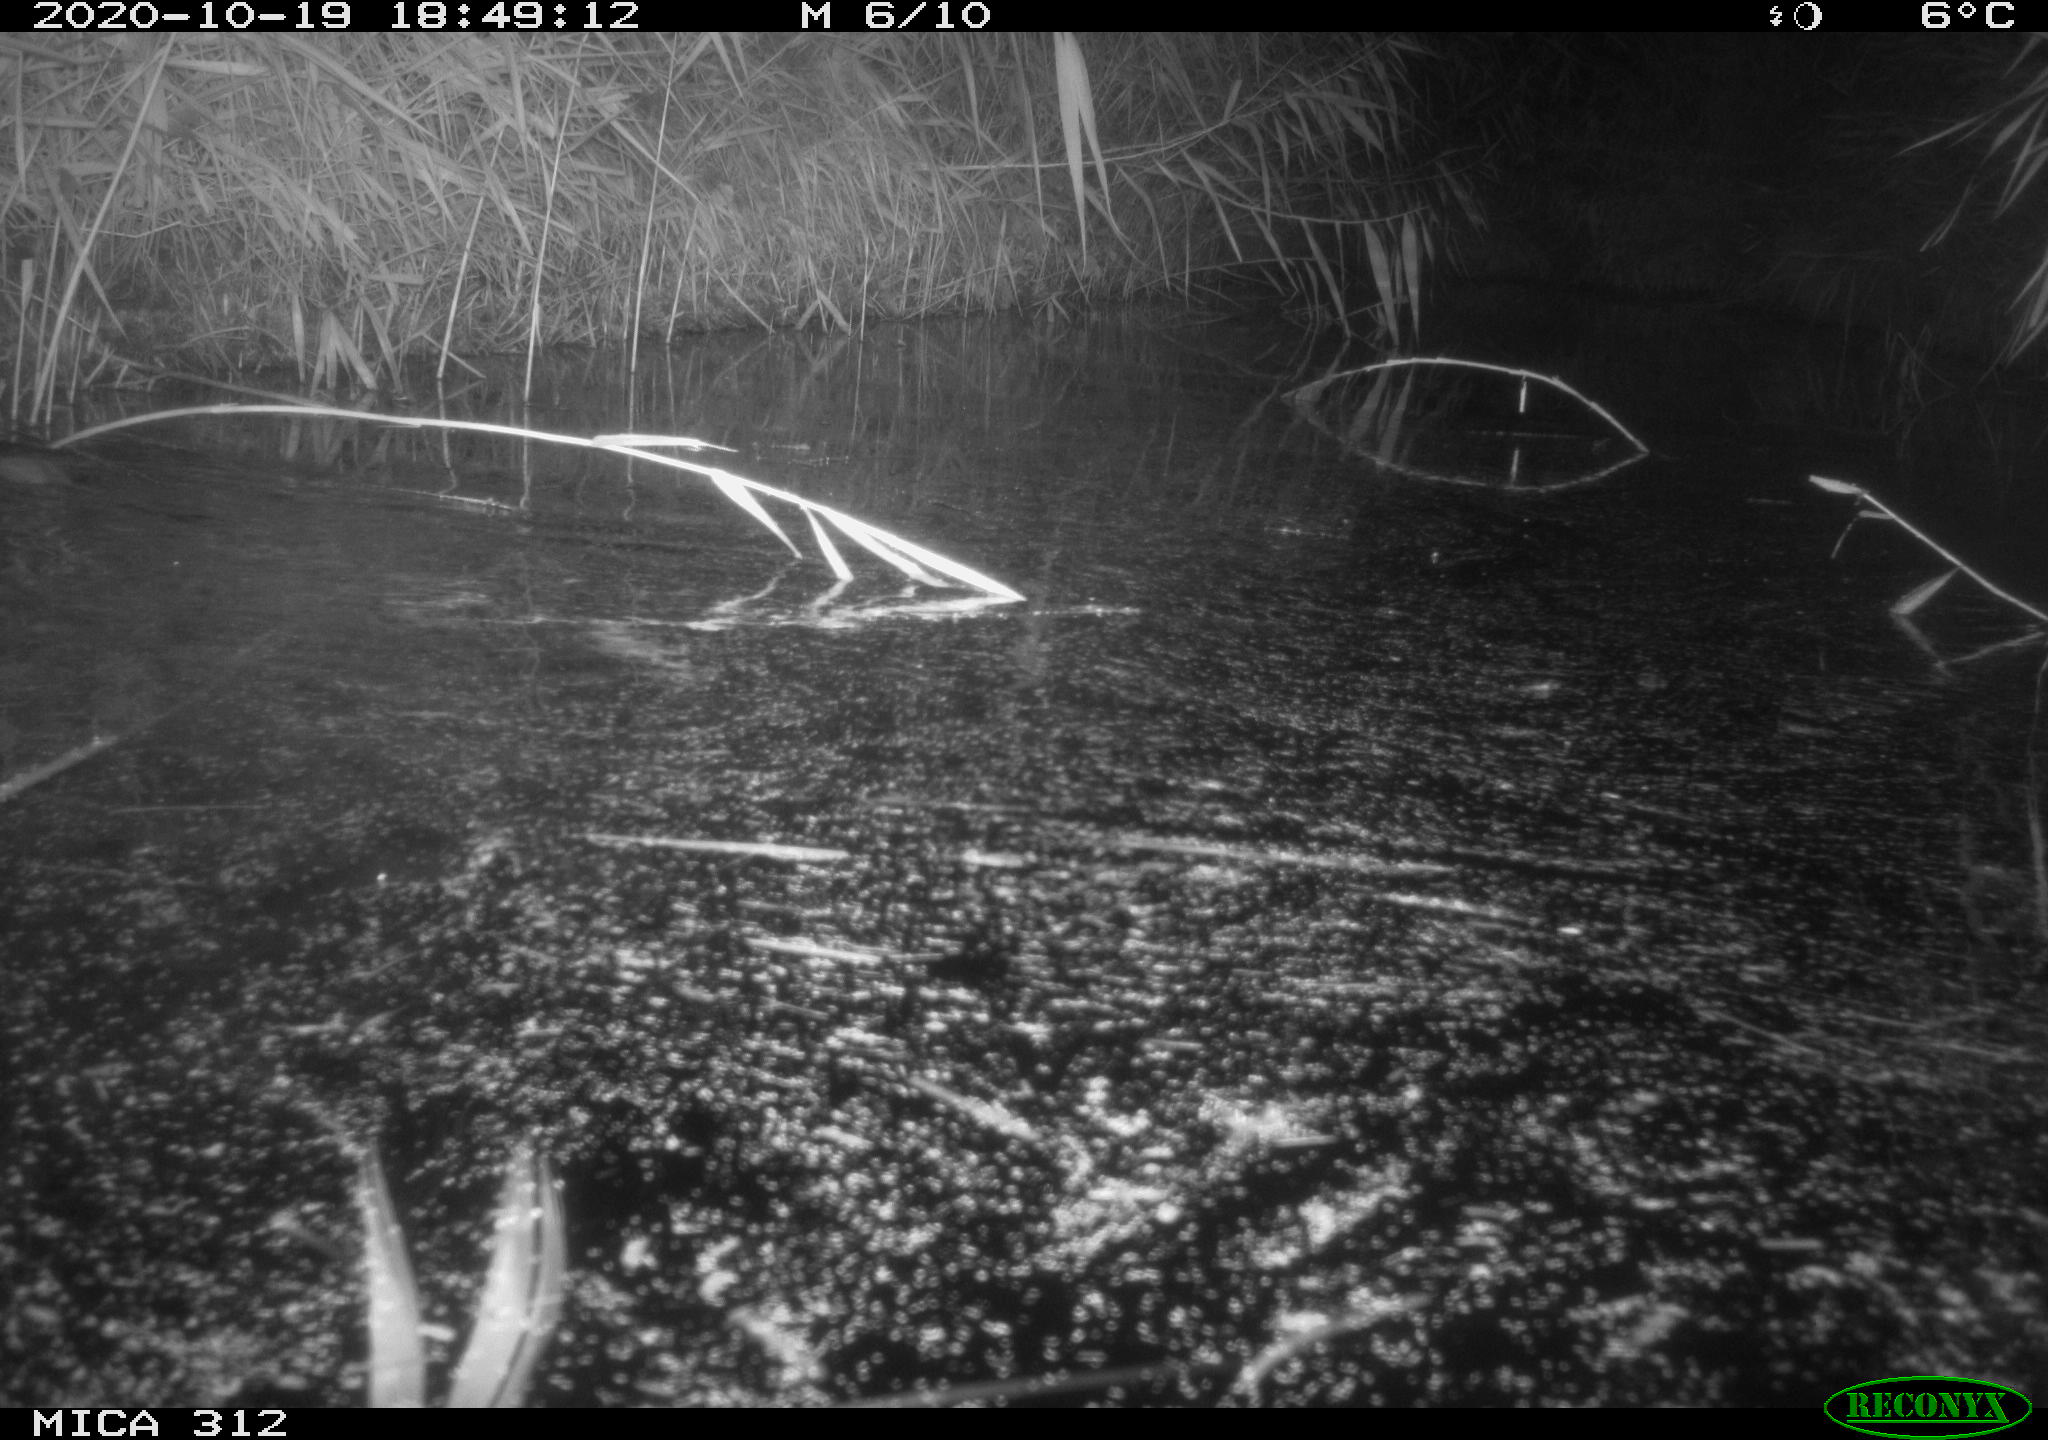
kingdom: Animalia
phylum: Chordata
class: Mammalia
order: Rodentia
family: Muridae
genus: Rattus
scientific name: Rattus norvegicus
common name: Brown rat
